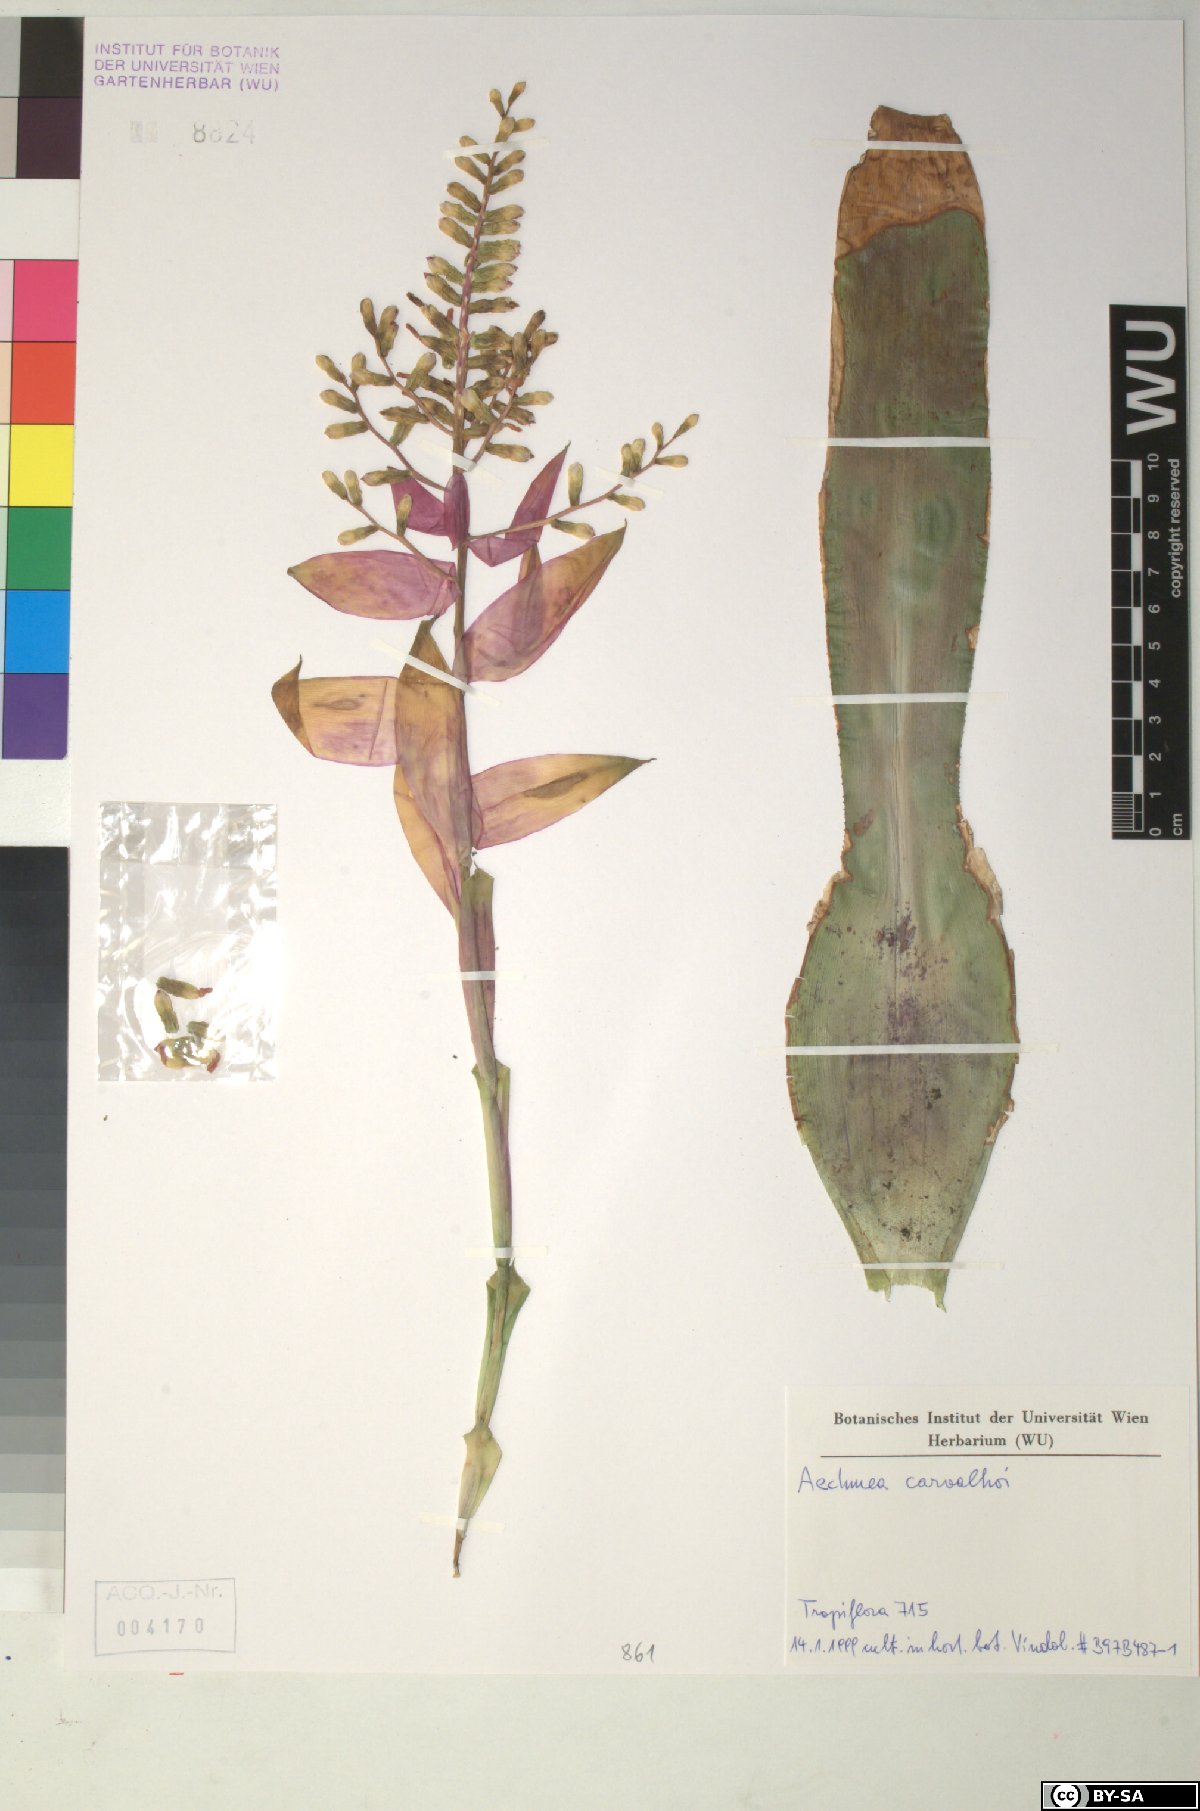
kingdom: Plantae
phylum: Tracheophyta
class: Liliopsida
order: Poales
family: Bromeliaceae
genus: Aechmea
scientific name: Aechmea carvalhoi
